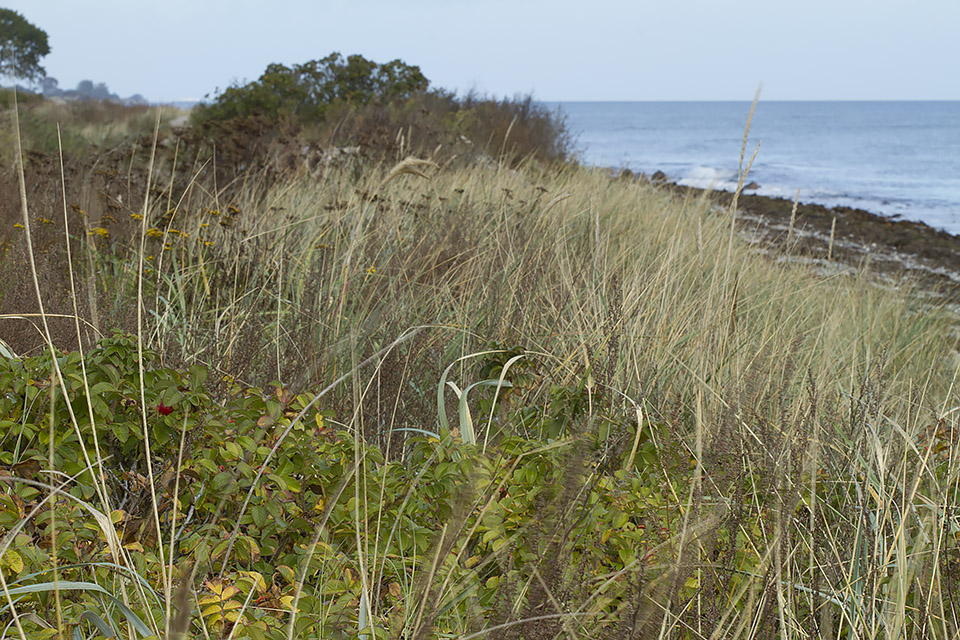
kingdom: Fungi
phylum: Basidiomycota
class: Agaricomycetes
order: Agaricales
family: Agaricaceae
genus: Leucoagaricus
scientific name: Leucoagaricus barssii
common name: gråfibret silkehat
